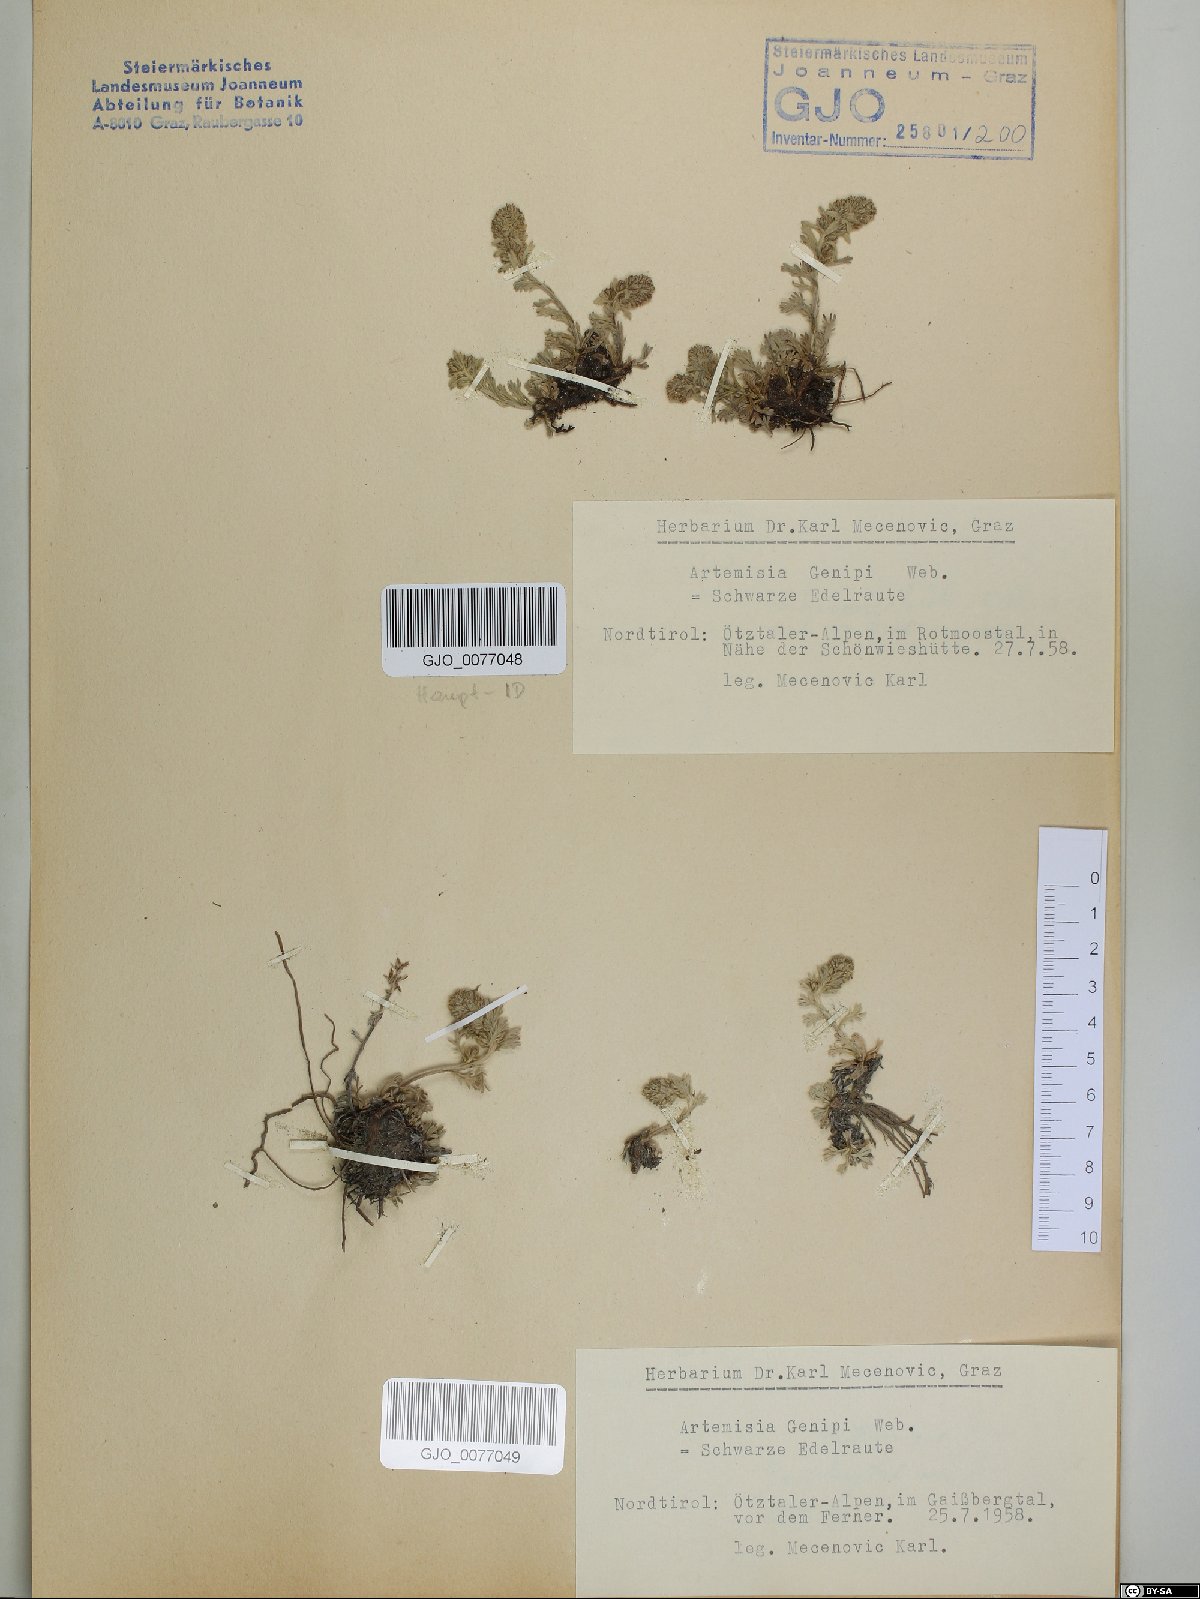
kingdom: Plantae
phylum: Tracheophyta
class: Magnoliopsida
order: Asterales
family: Asteraceae
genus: Artemisia
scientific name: Artemisia genipi
